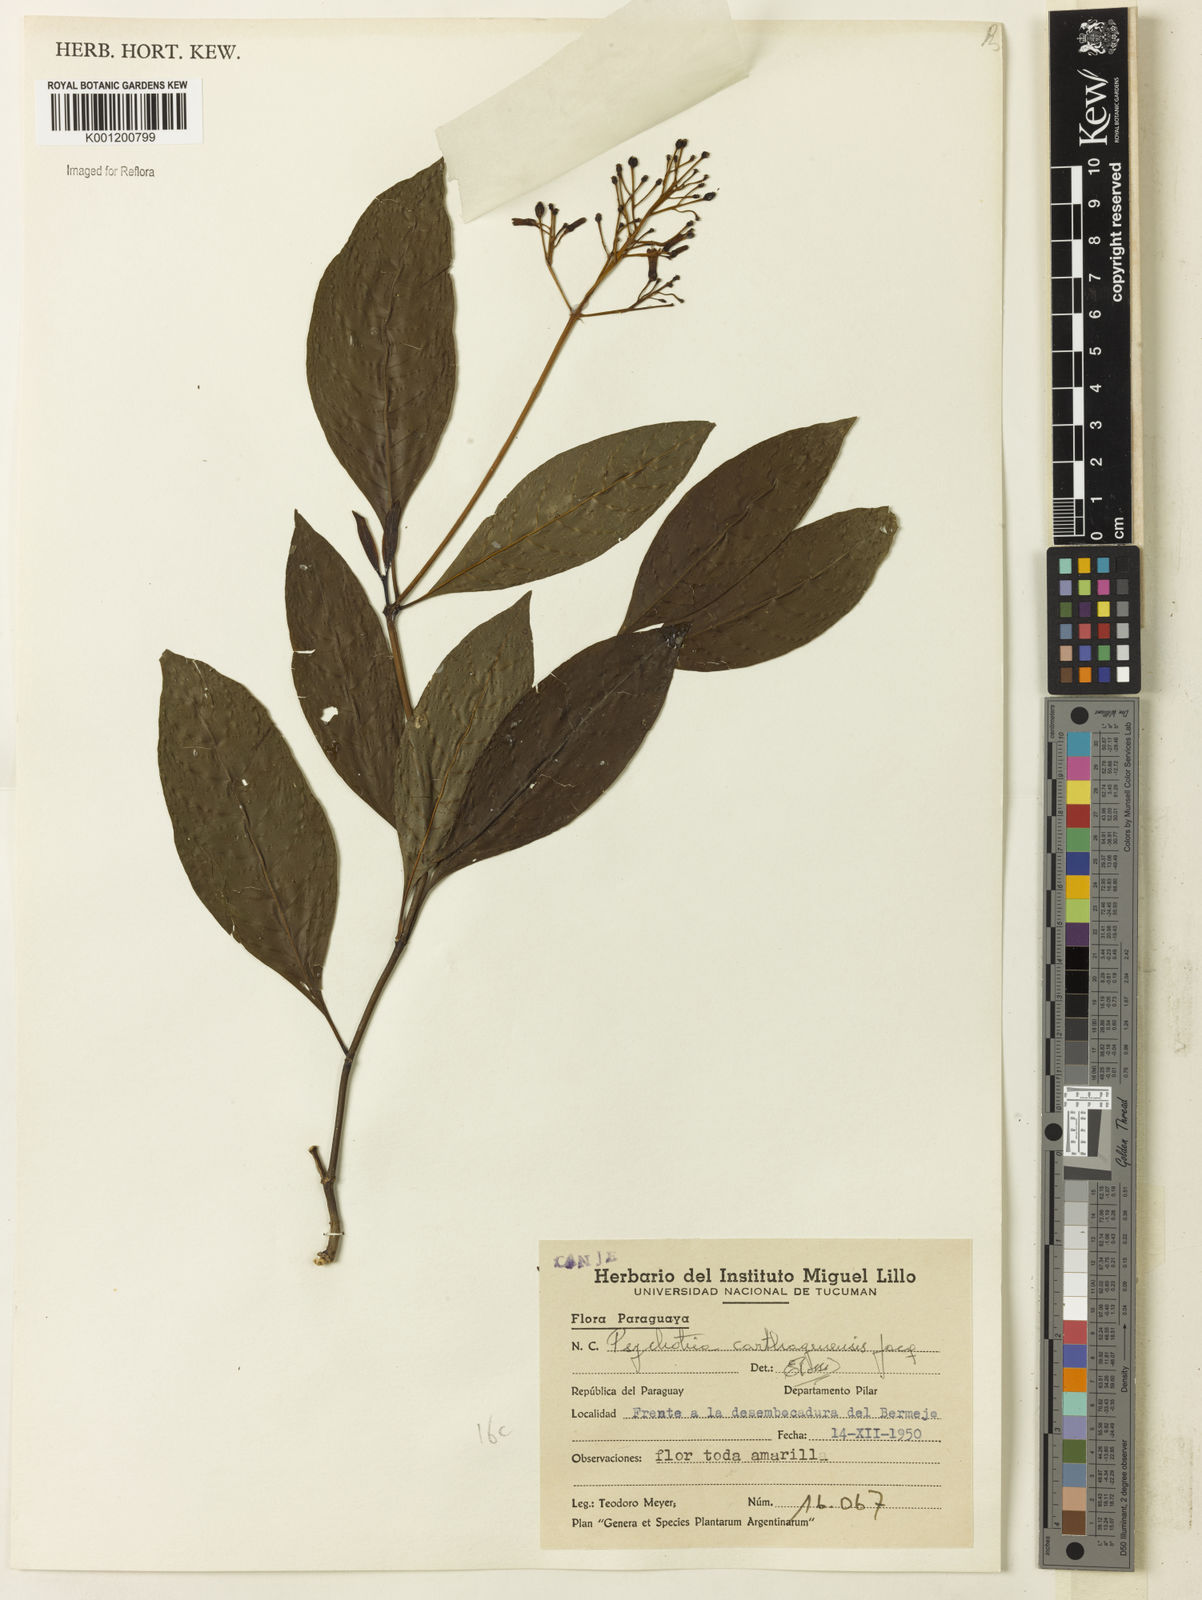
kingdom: Plantae
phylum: Tracheophyta
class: Magnoliopsida
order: Gentianales
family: Rubiaceae
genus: Palicourea
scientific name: Palicourea crocea
